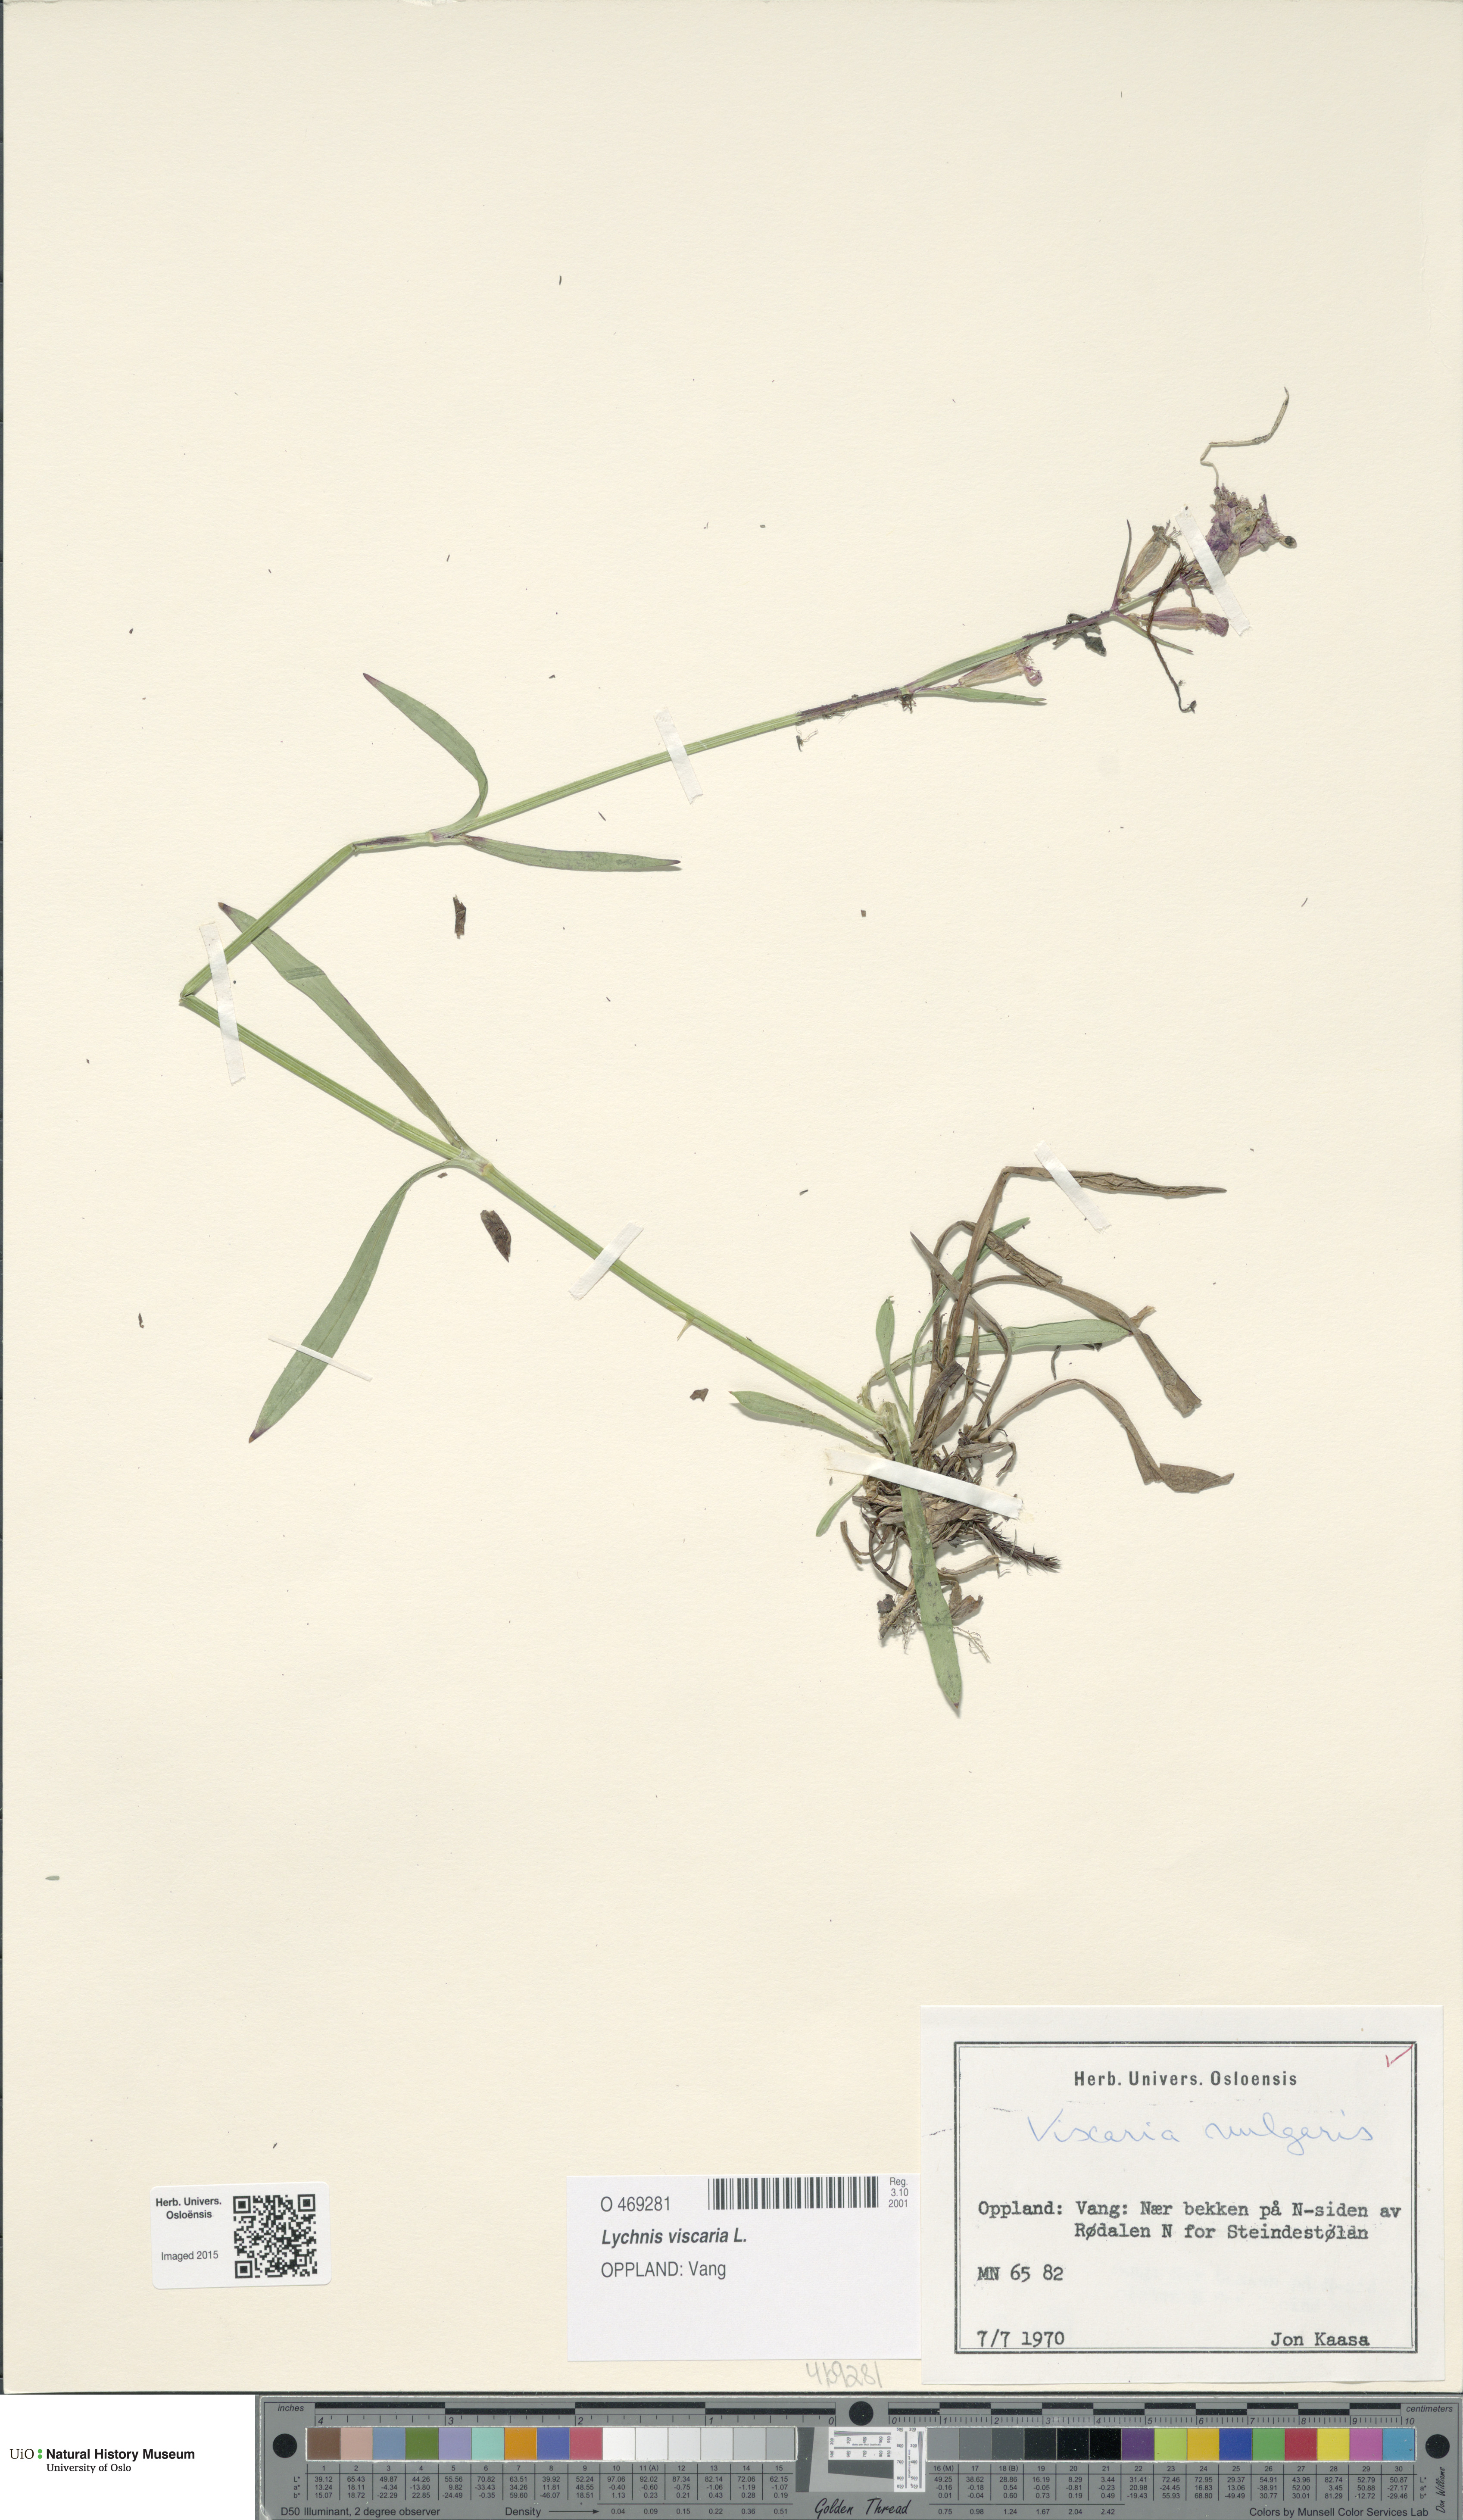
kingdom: Plantae
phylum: Tracheophyta
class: Magnoliopsida
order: Caryophyllales
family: Caryophyllaceae
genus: Viscaria
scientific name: Viscaria vulgaris
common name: Clammy campion
